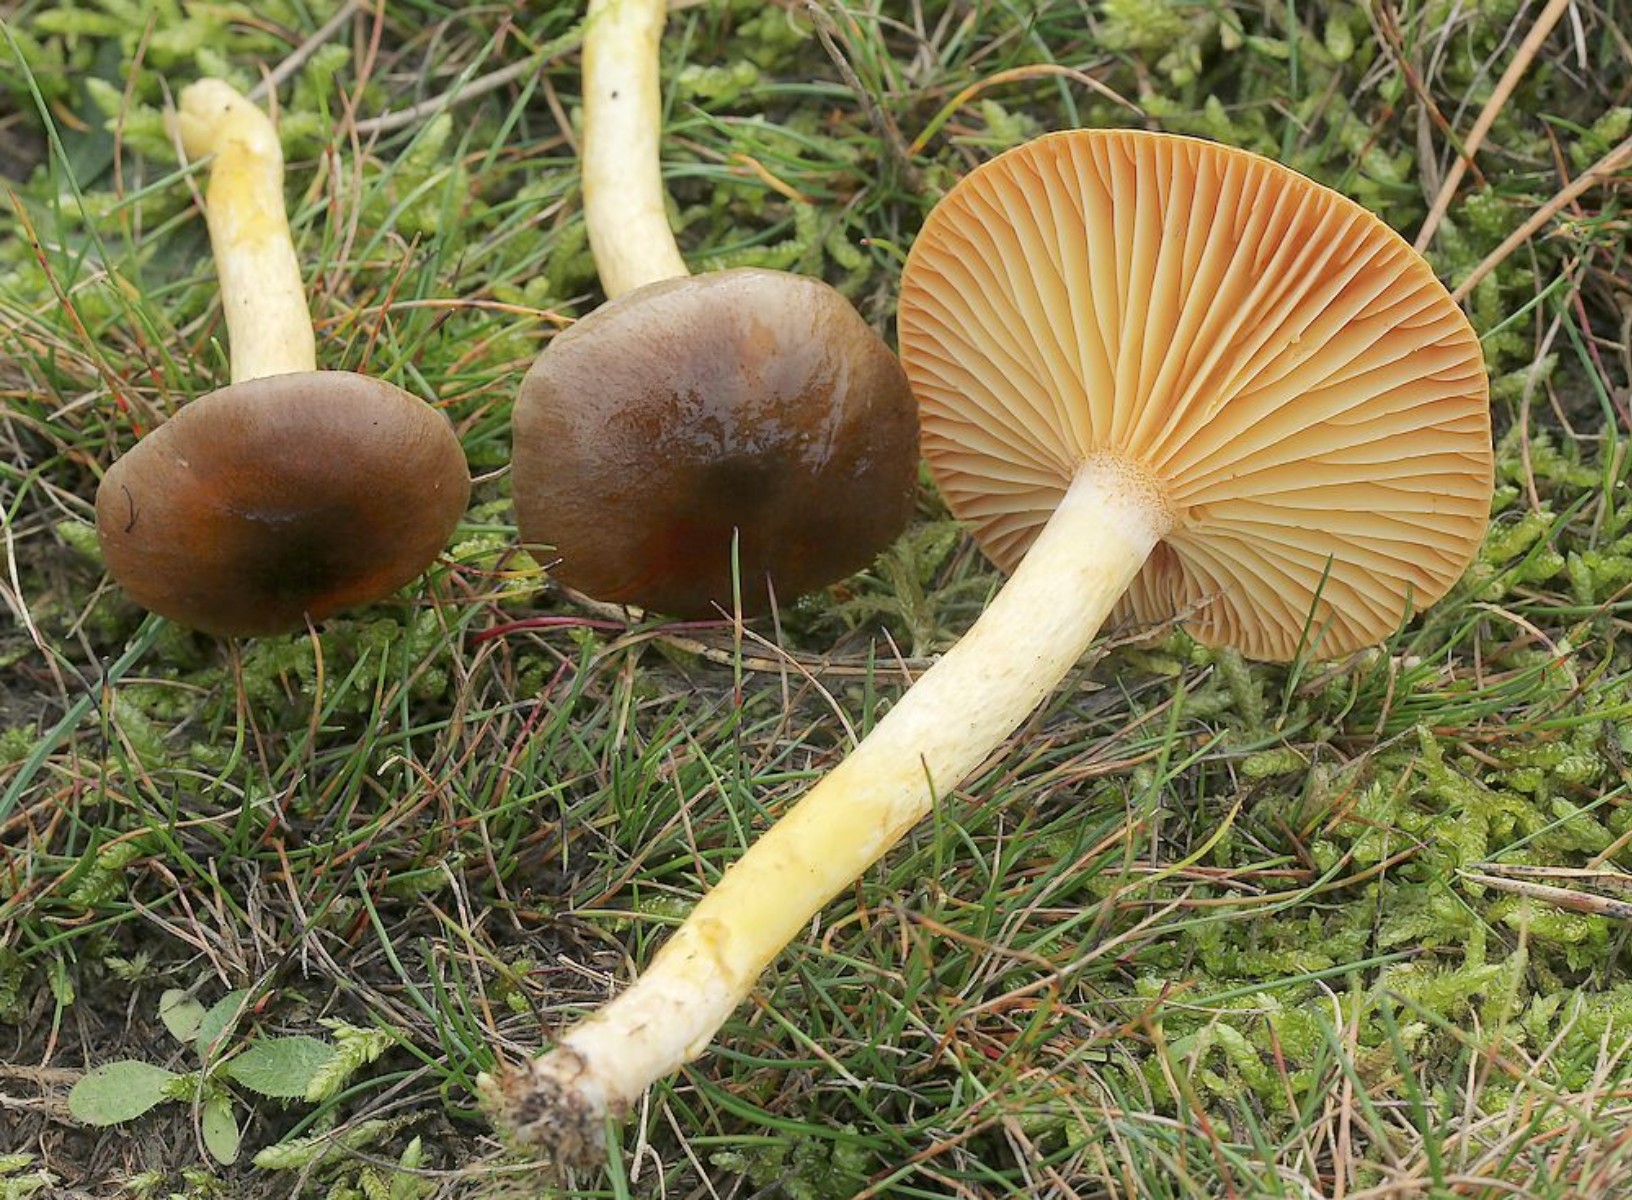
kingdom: Fungi
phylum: Basidiomycota
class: Agaricomycetes
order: Agaricales
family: Hygrophoraceae
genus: Hygrophorus
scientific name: Hygrophorus hypothejus
